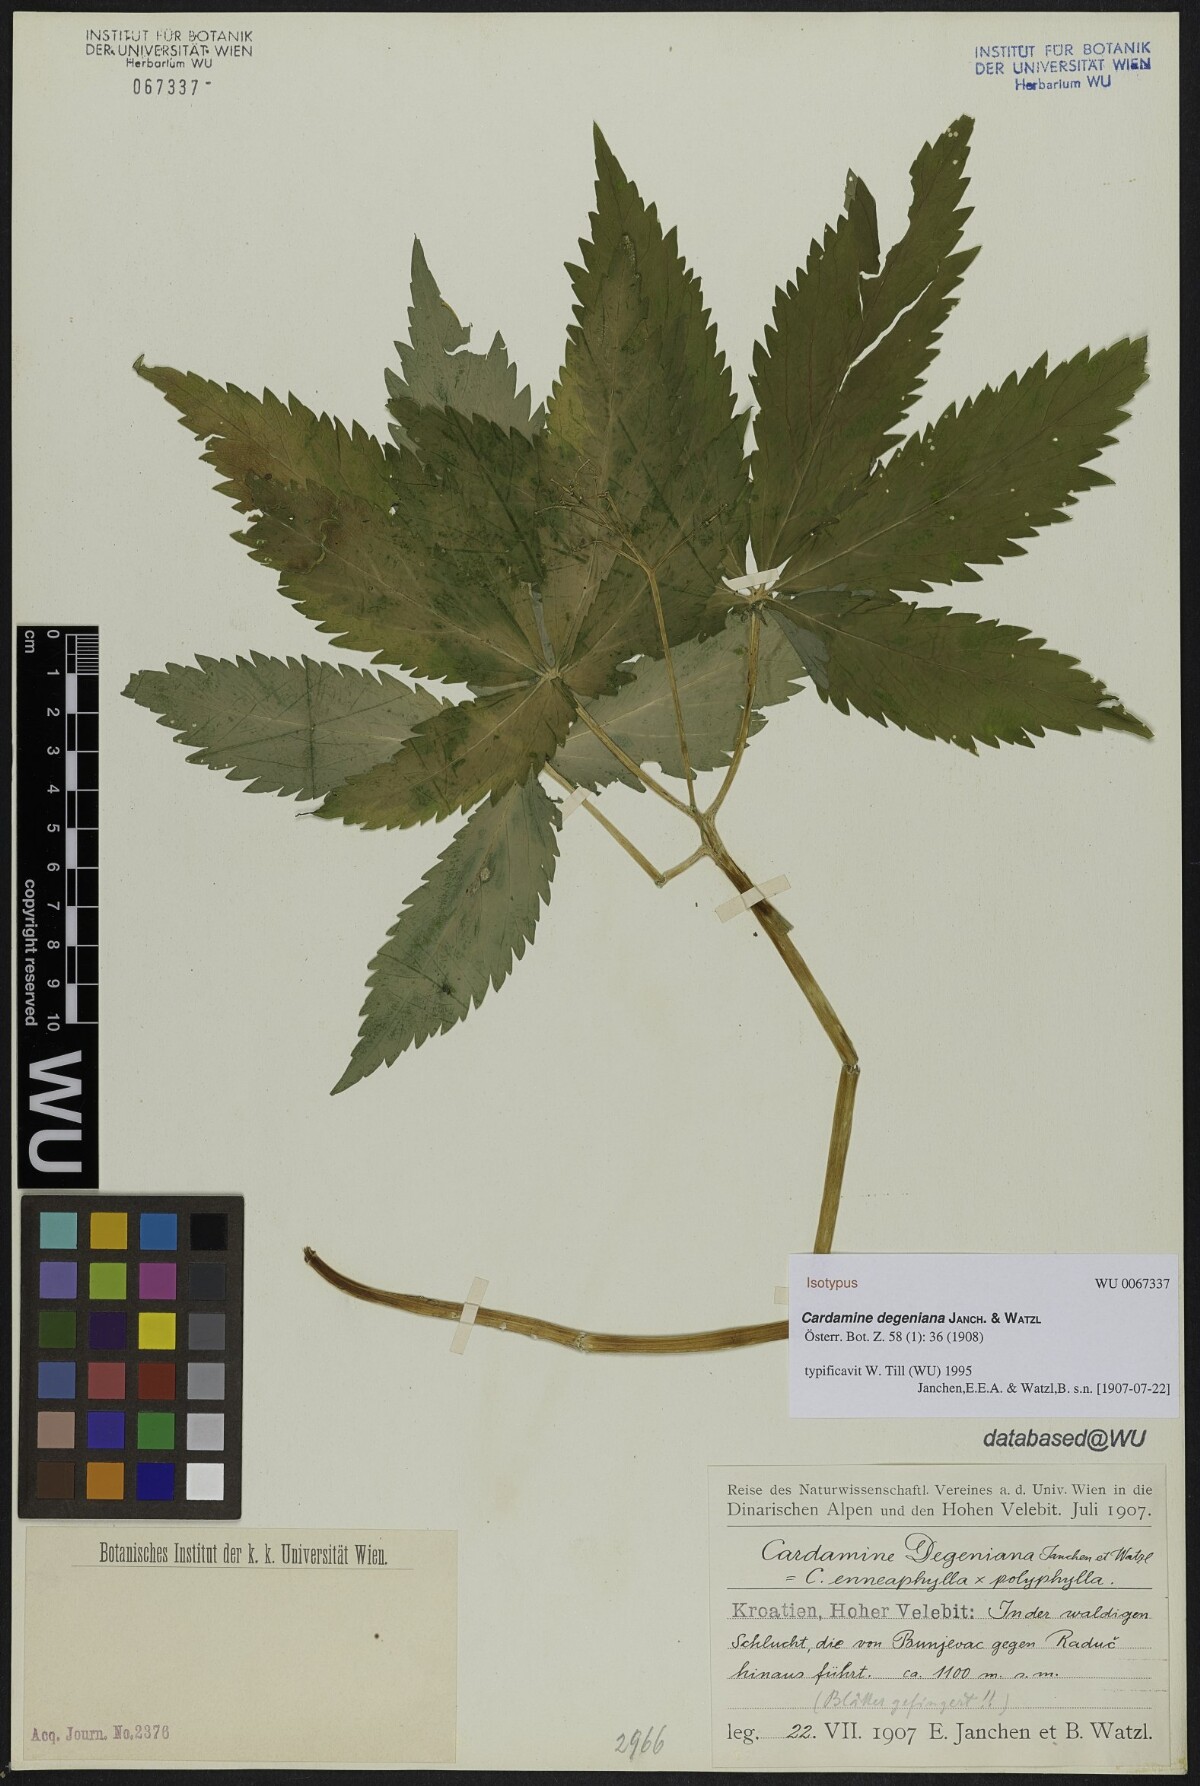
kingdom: Plantae
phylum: Tracheophyta
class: Magnoliopsida
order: Brassicales
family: Brassicaceae
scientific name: Brassicaceae
